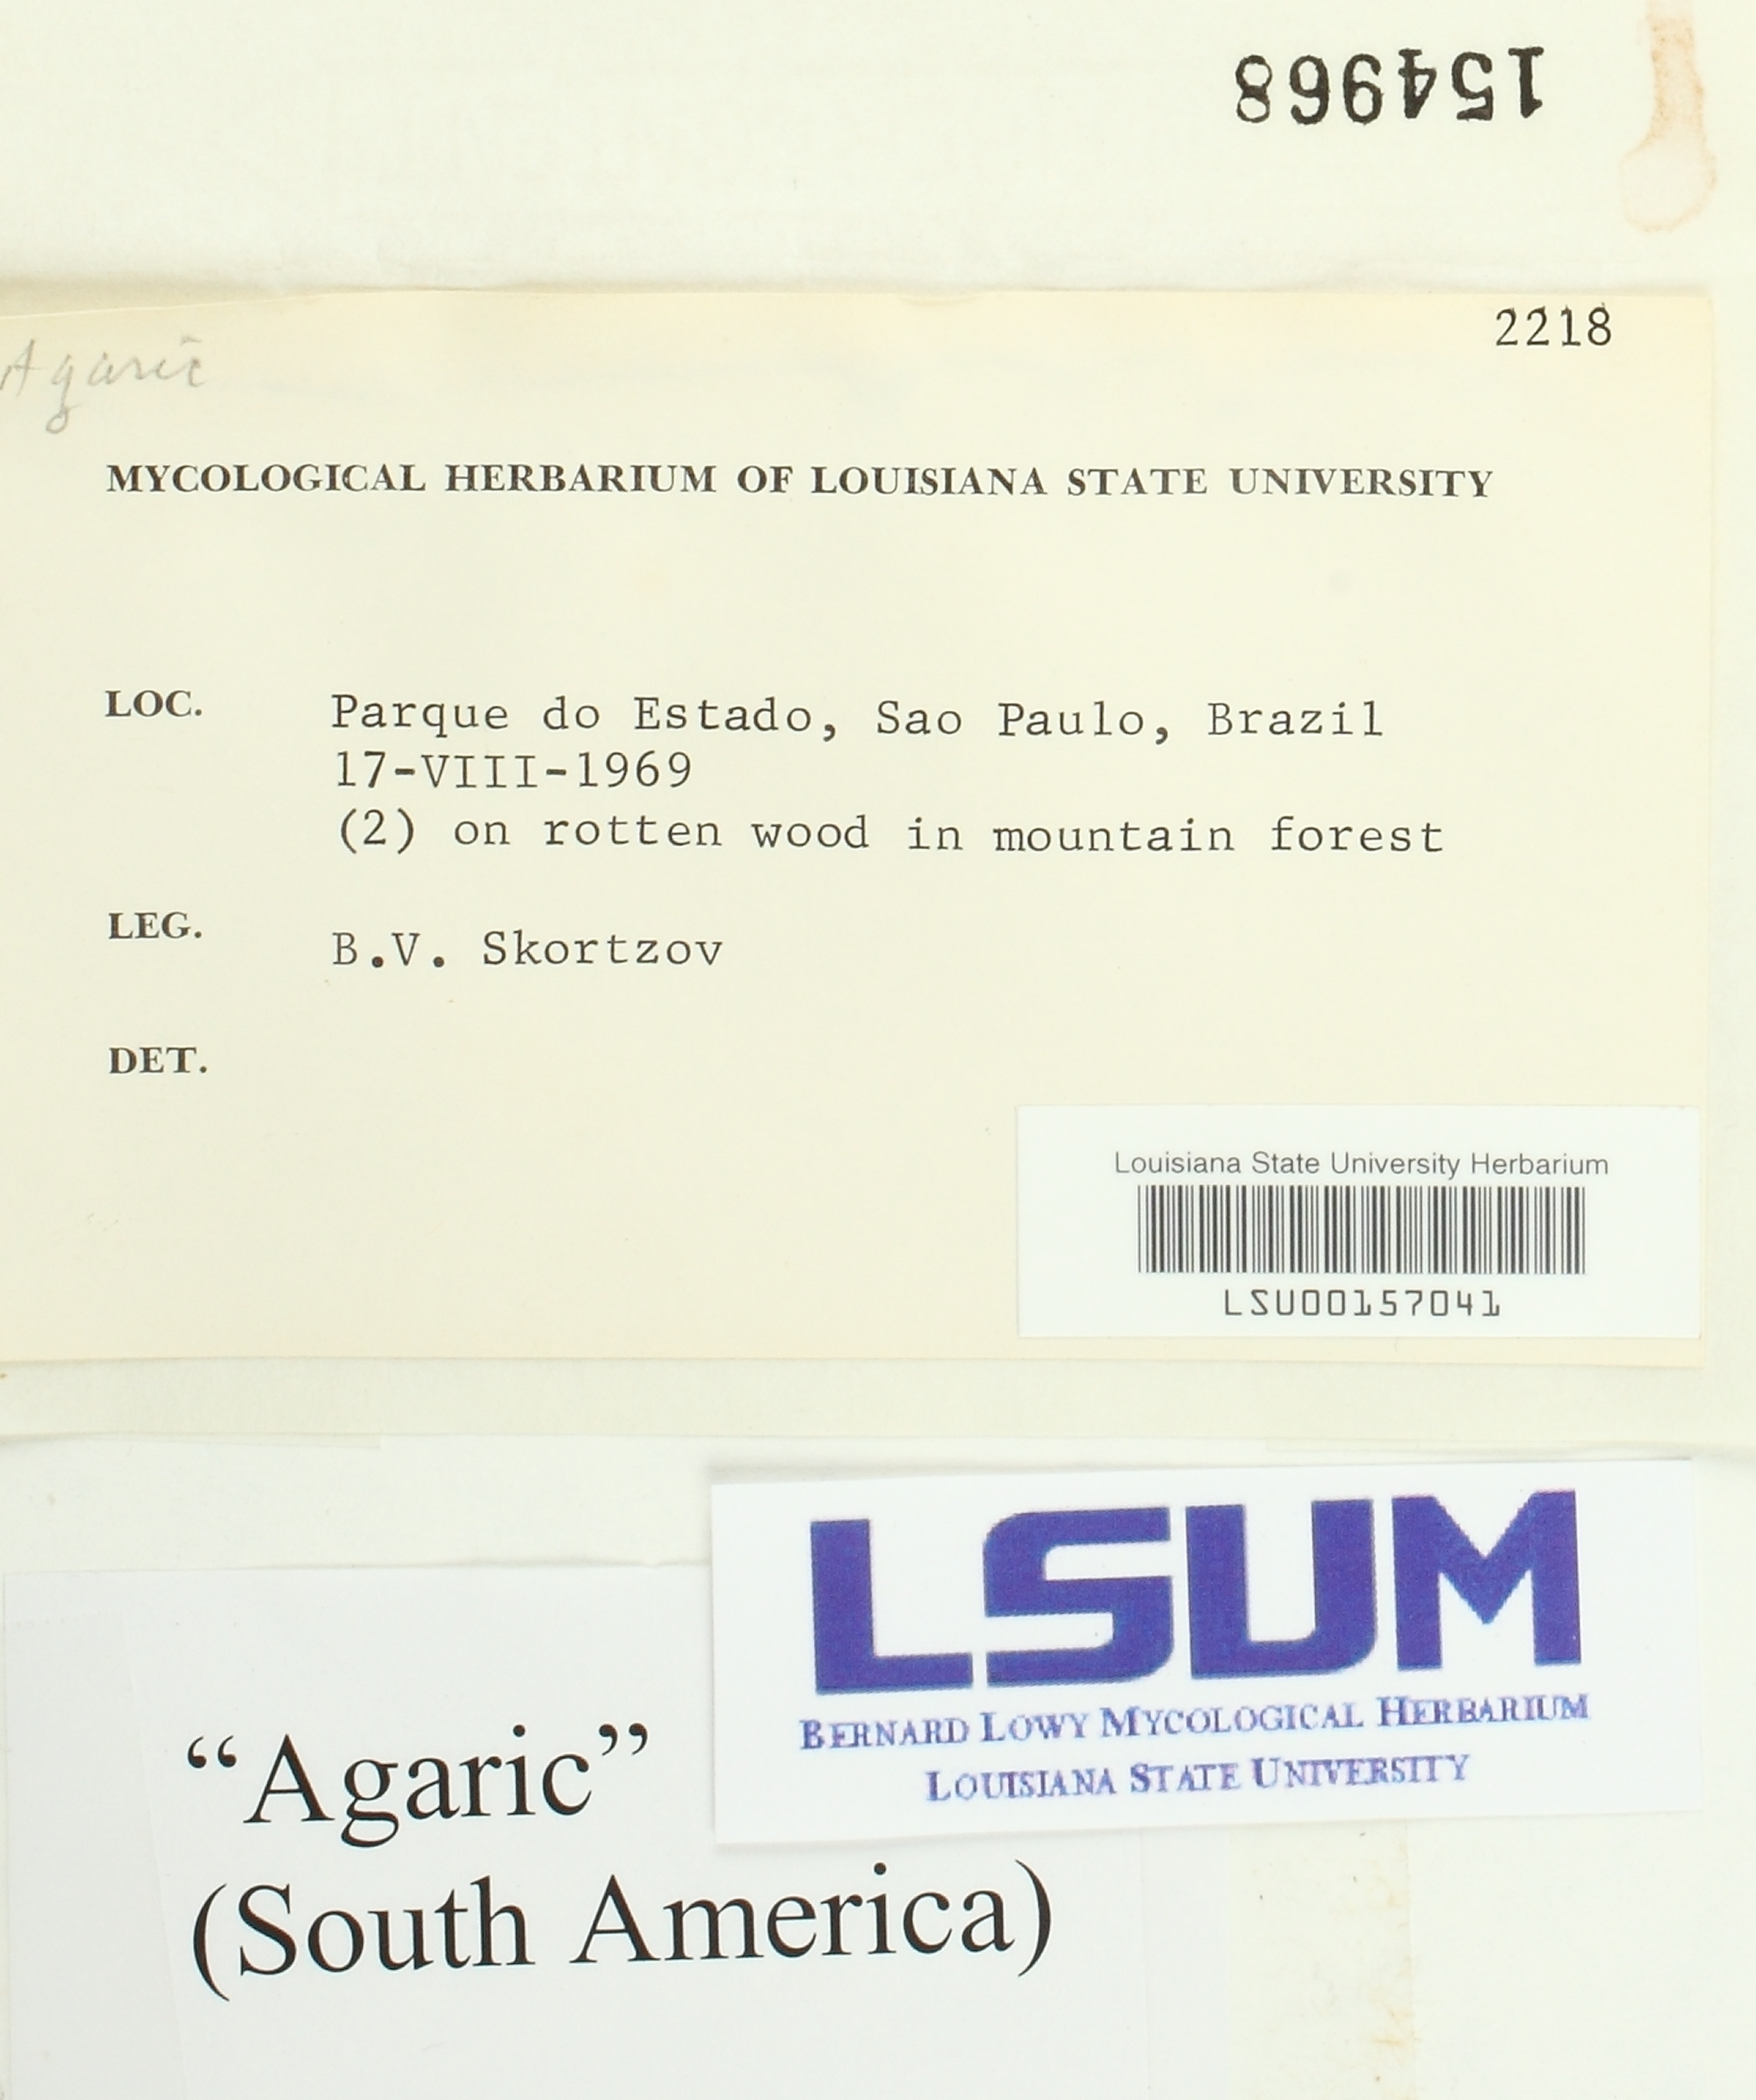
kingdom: Fungi
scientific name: Fungi
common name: Fungi
